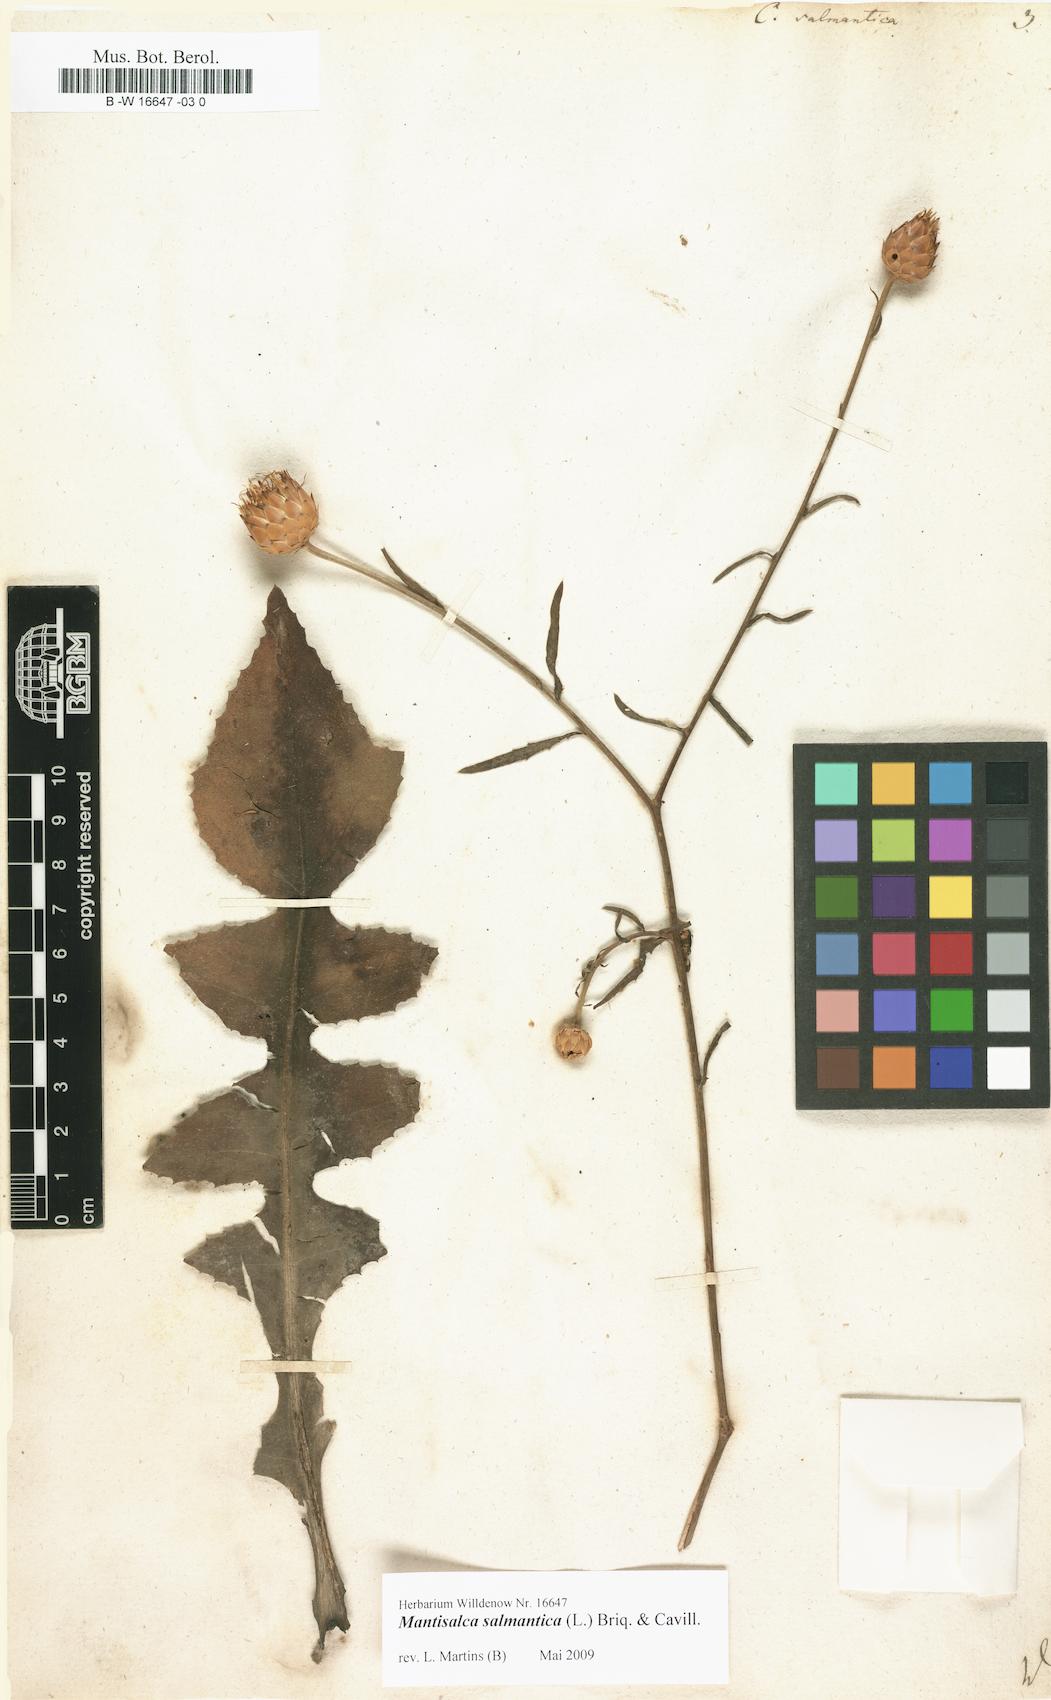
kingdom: Plantae
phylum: Tracheophyta
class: Magnoliopsida
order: Asterales
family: Asteraceae
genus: Mantisalca
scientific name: Mantisalca salmantica
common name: Dagger flower
